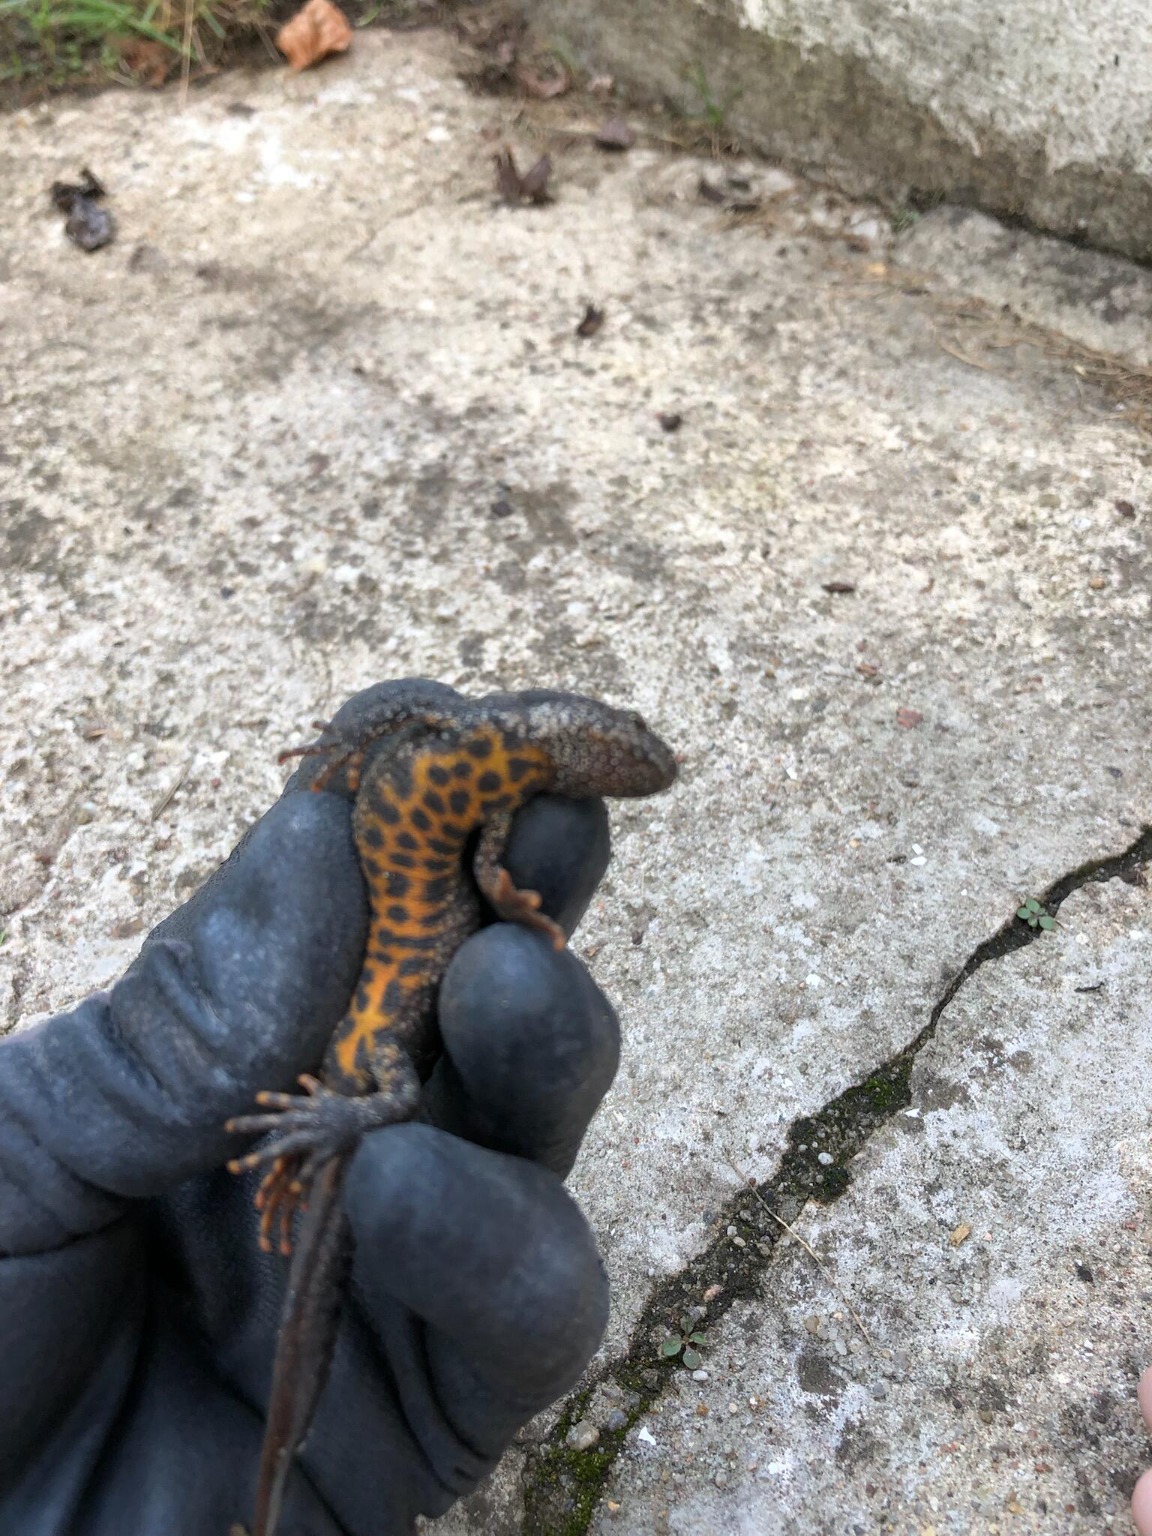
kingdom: Animalia
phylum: Chordata
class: Amphibia
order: Caudata
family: Salamandridae
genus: Triturus
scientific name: Triturus cristatus
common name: Stor vandsalamander
